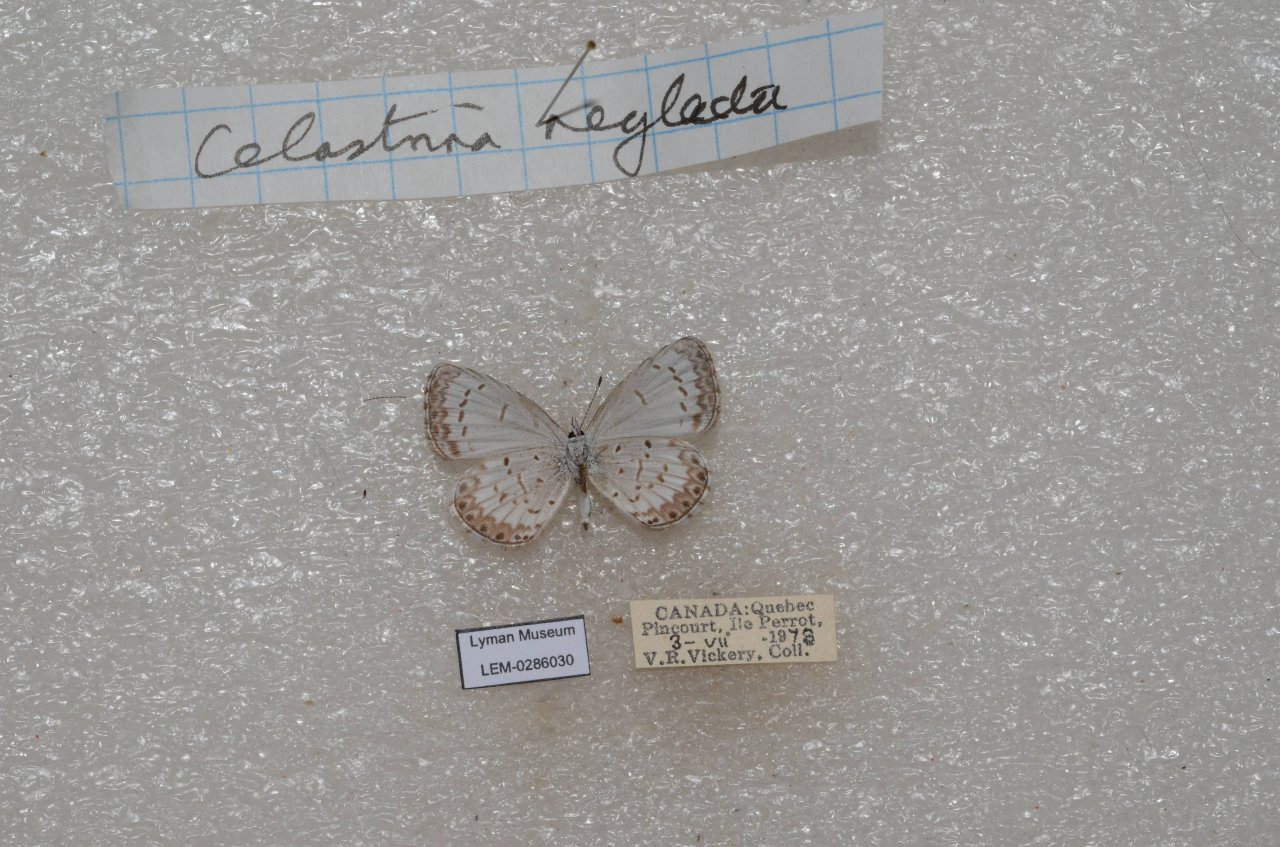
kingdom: Animalia
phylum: Arthropoda
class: Insecta
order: Lepidoptera
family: Lycaenidae
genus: Celastrina
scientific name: Celastrina lucia
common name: Northern Spring Azure
